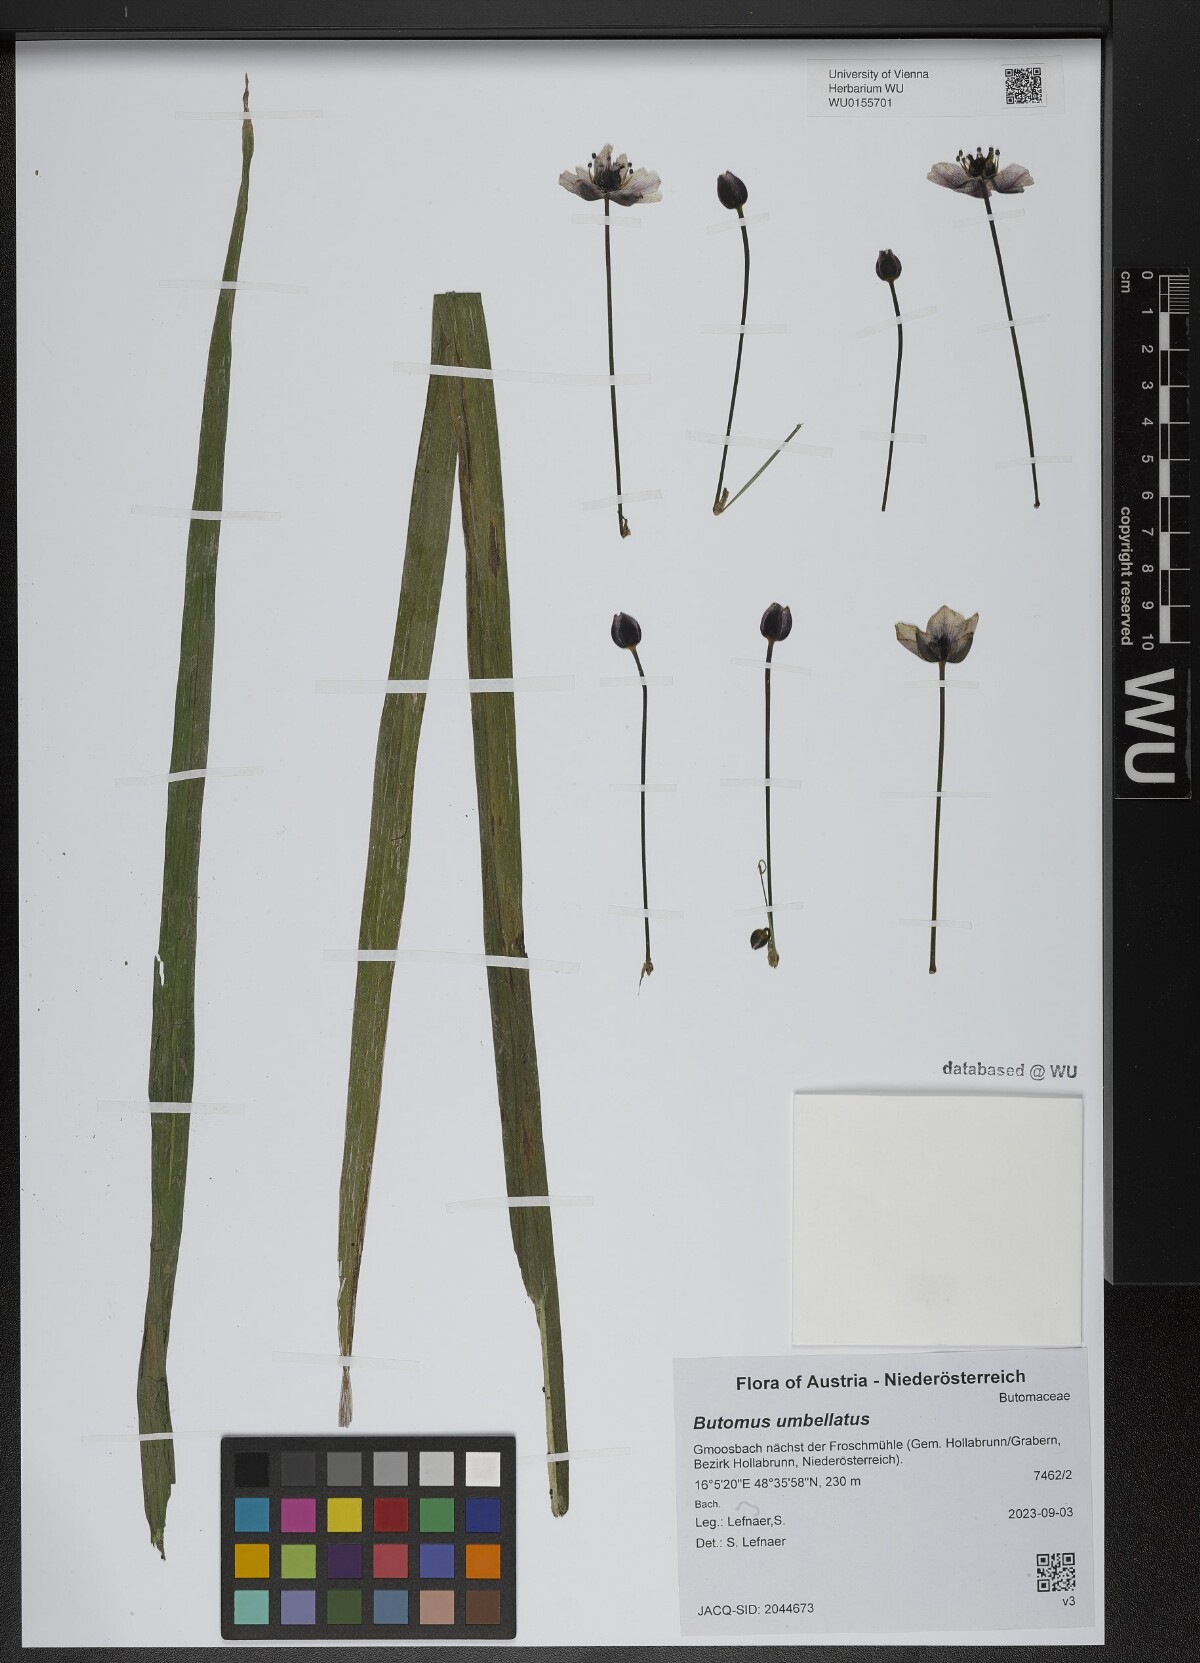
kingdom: Plantae
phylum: Tracheophyta
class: Liliopsida
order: Alismatales
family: Butomaceae
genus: Butomus
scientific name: Butomus umbellatus
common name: Flowering-rush
